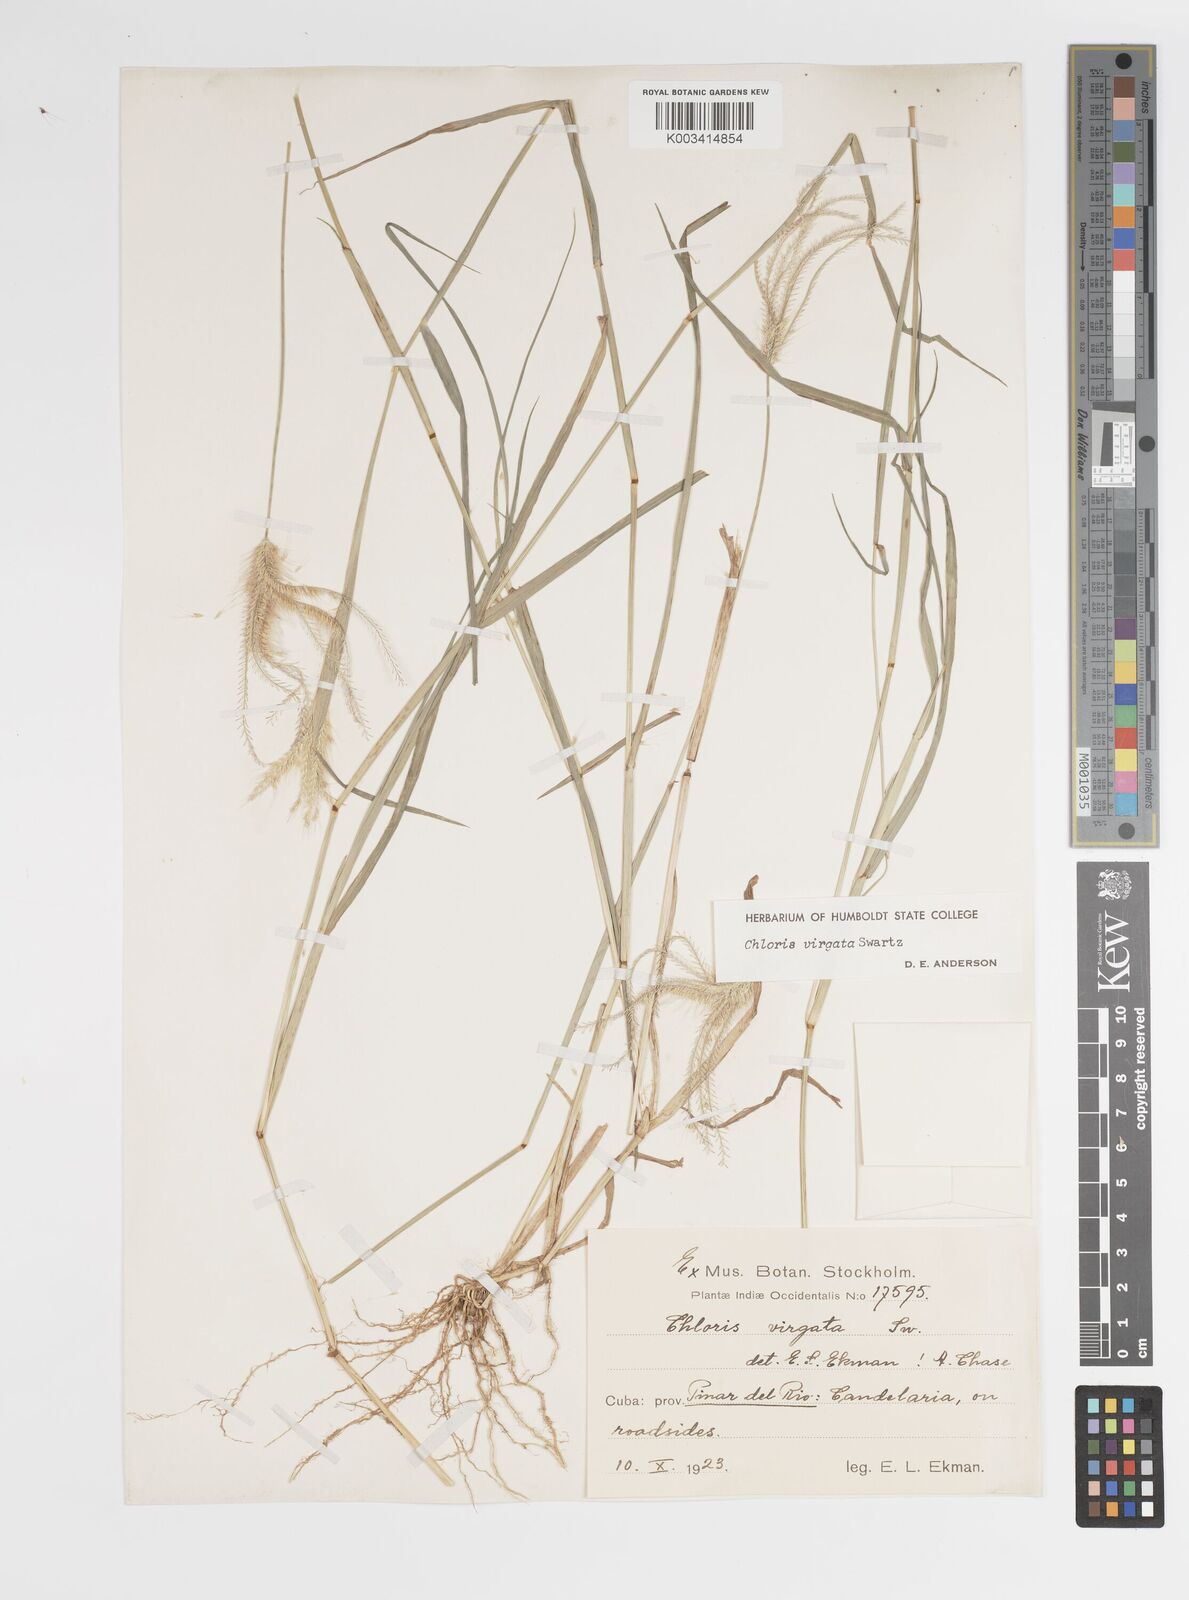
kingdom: Plantae
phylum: Tracheophyta
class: Liliopsida
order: Poales
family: Poaceae
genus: Chloris
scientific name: Chloris virgata
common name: Feathery rhodes-grass
